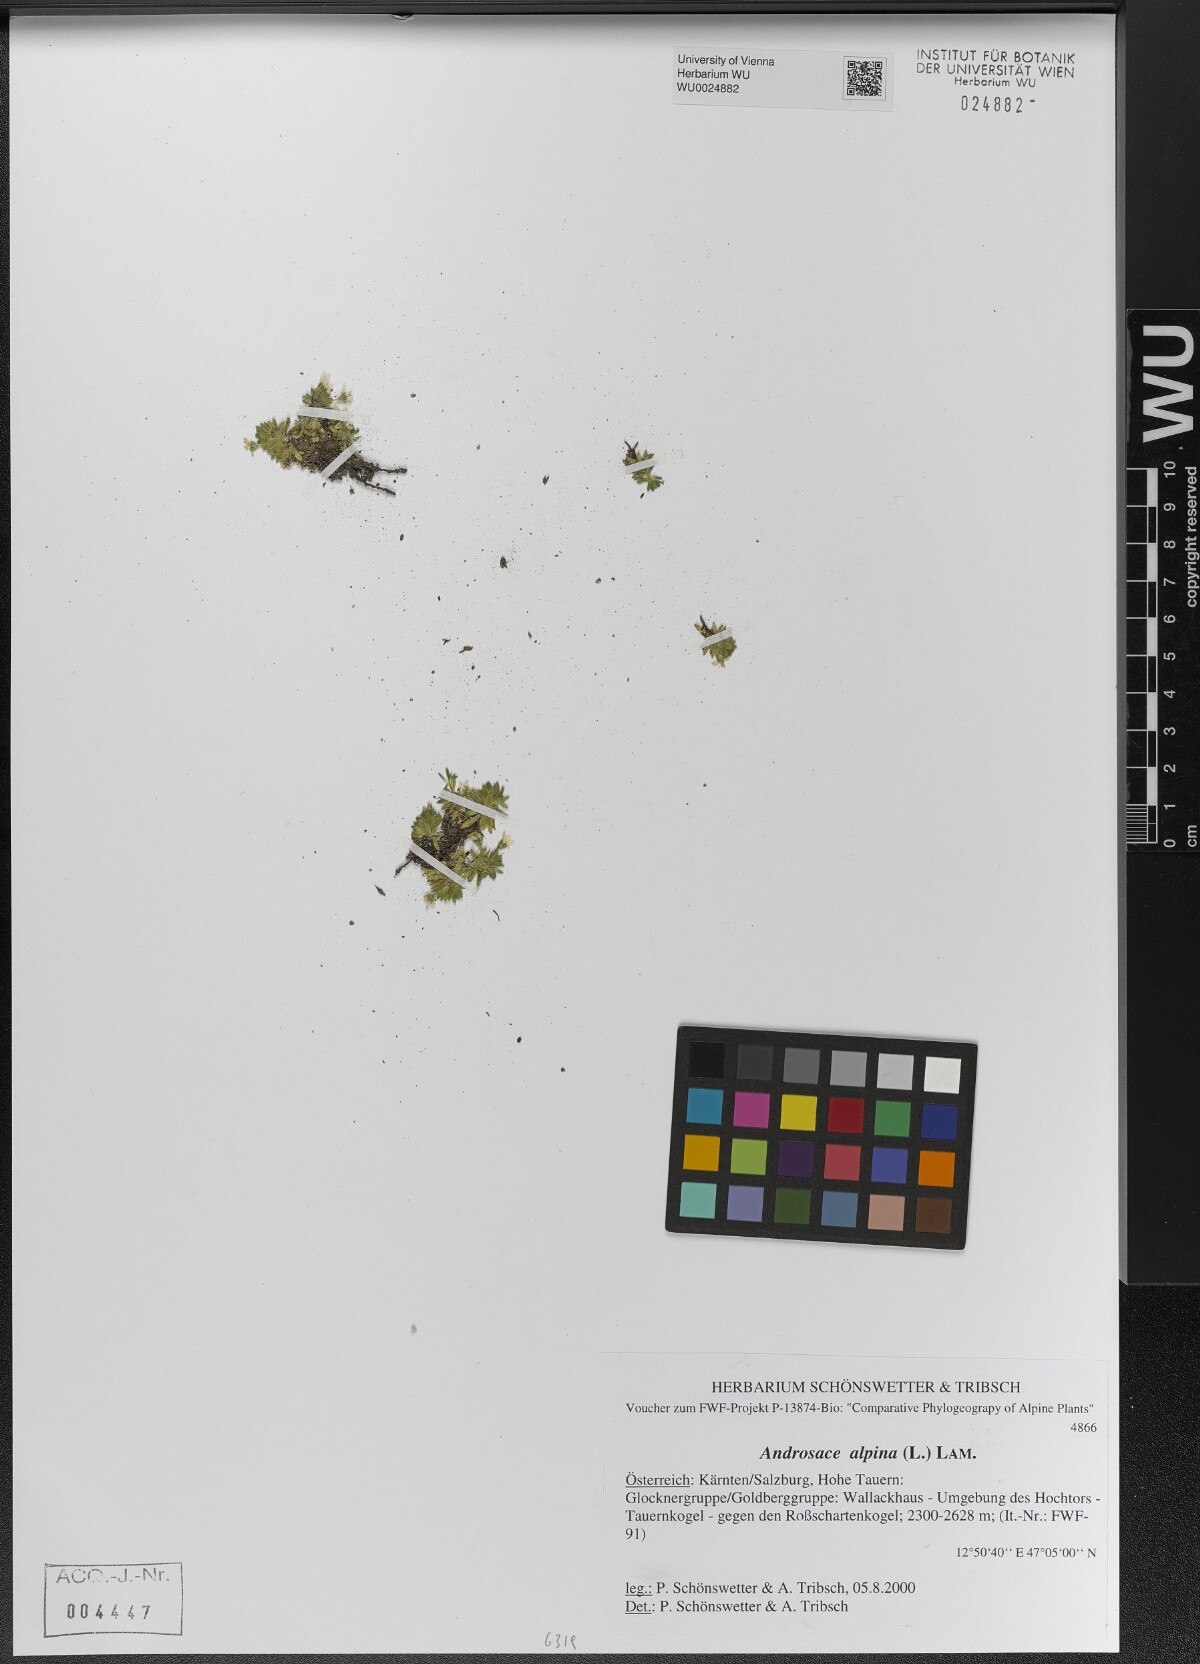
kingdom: Plantae
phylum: Tracheophyta
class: Magnoliopsida
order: Ericales
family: Primulaceae
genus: Androsace
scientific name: Androsace alpina
